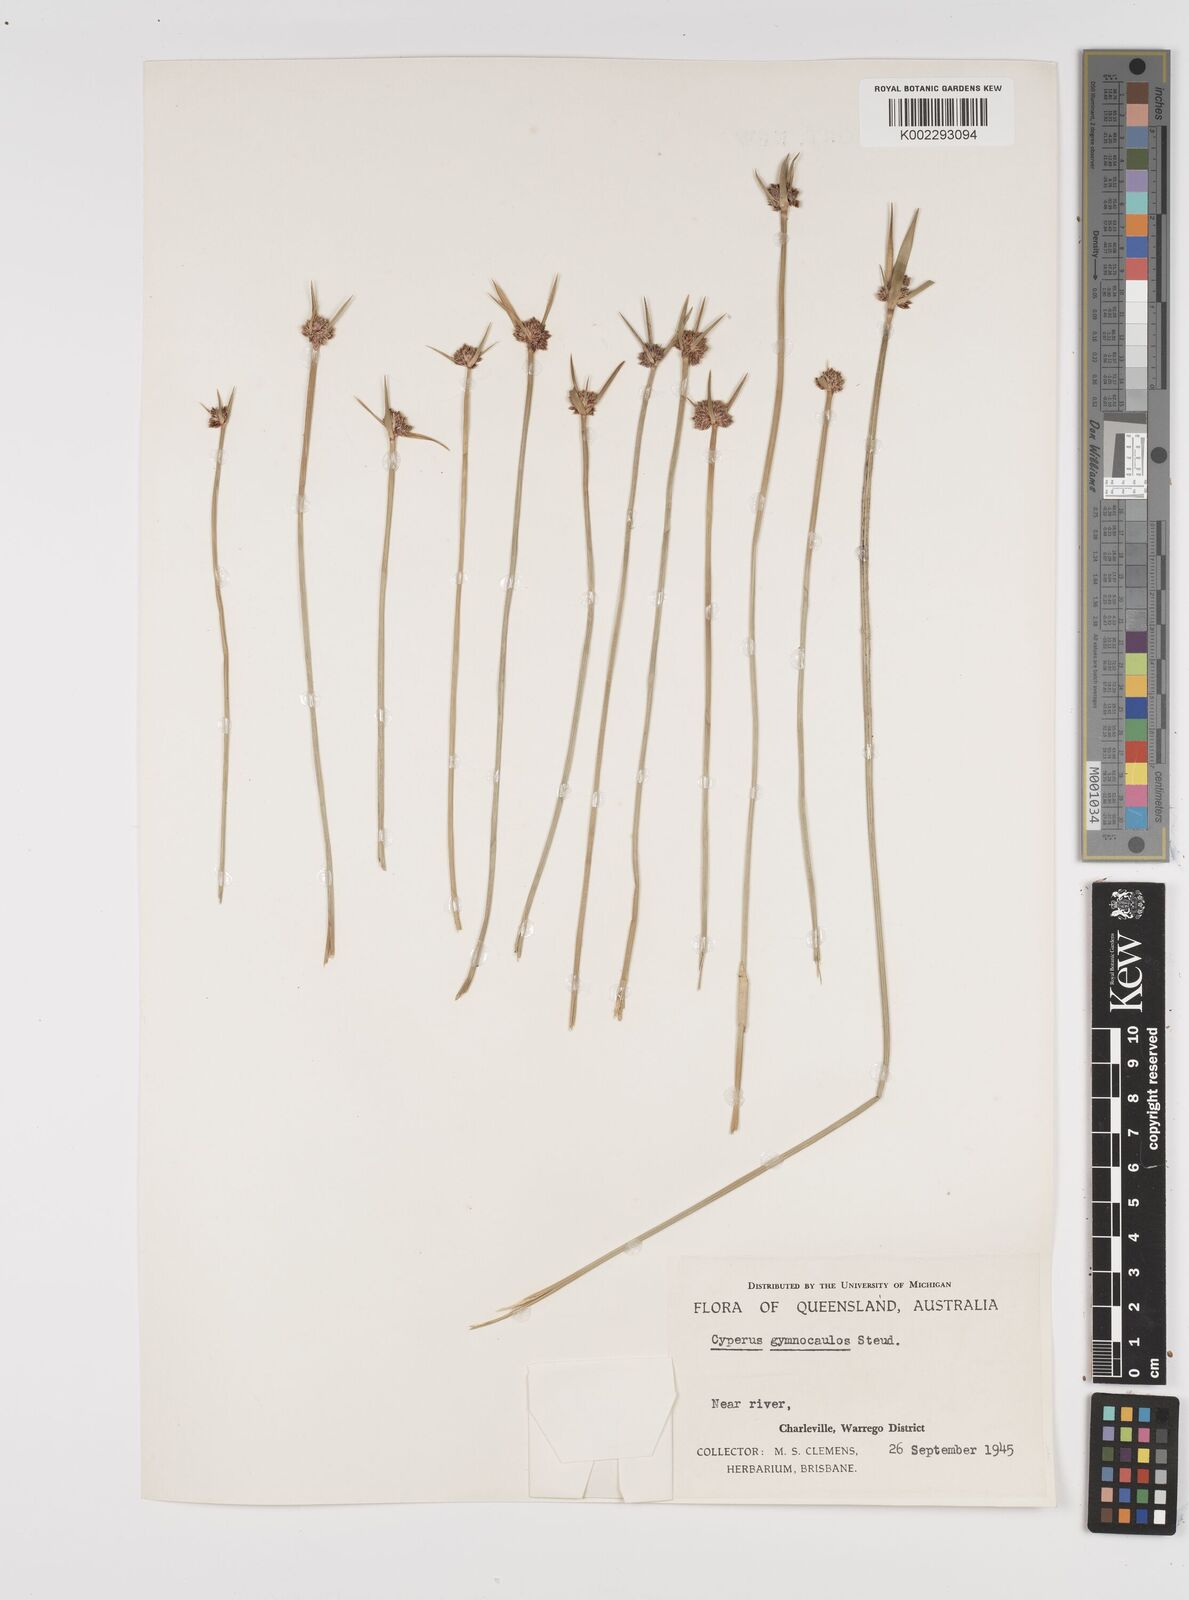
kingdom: Plantae
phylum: Tracheophyta
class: Liliopsida
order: Poales
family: Cyperaceae
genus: Cyperus
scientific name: Cyperus gymnocaulos
